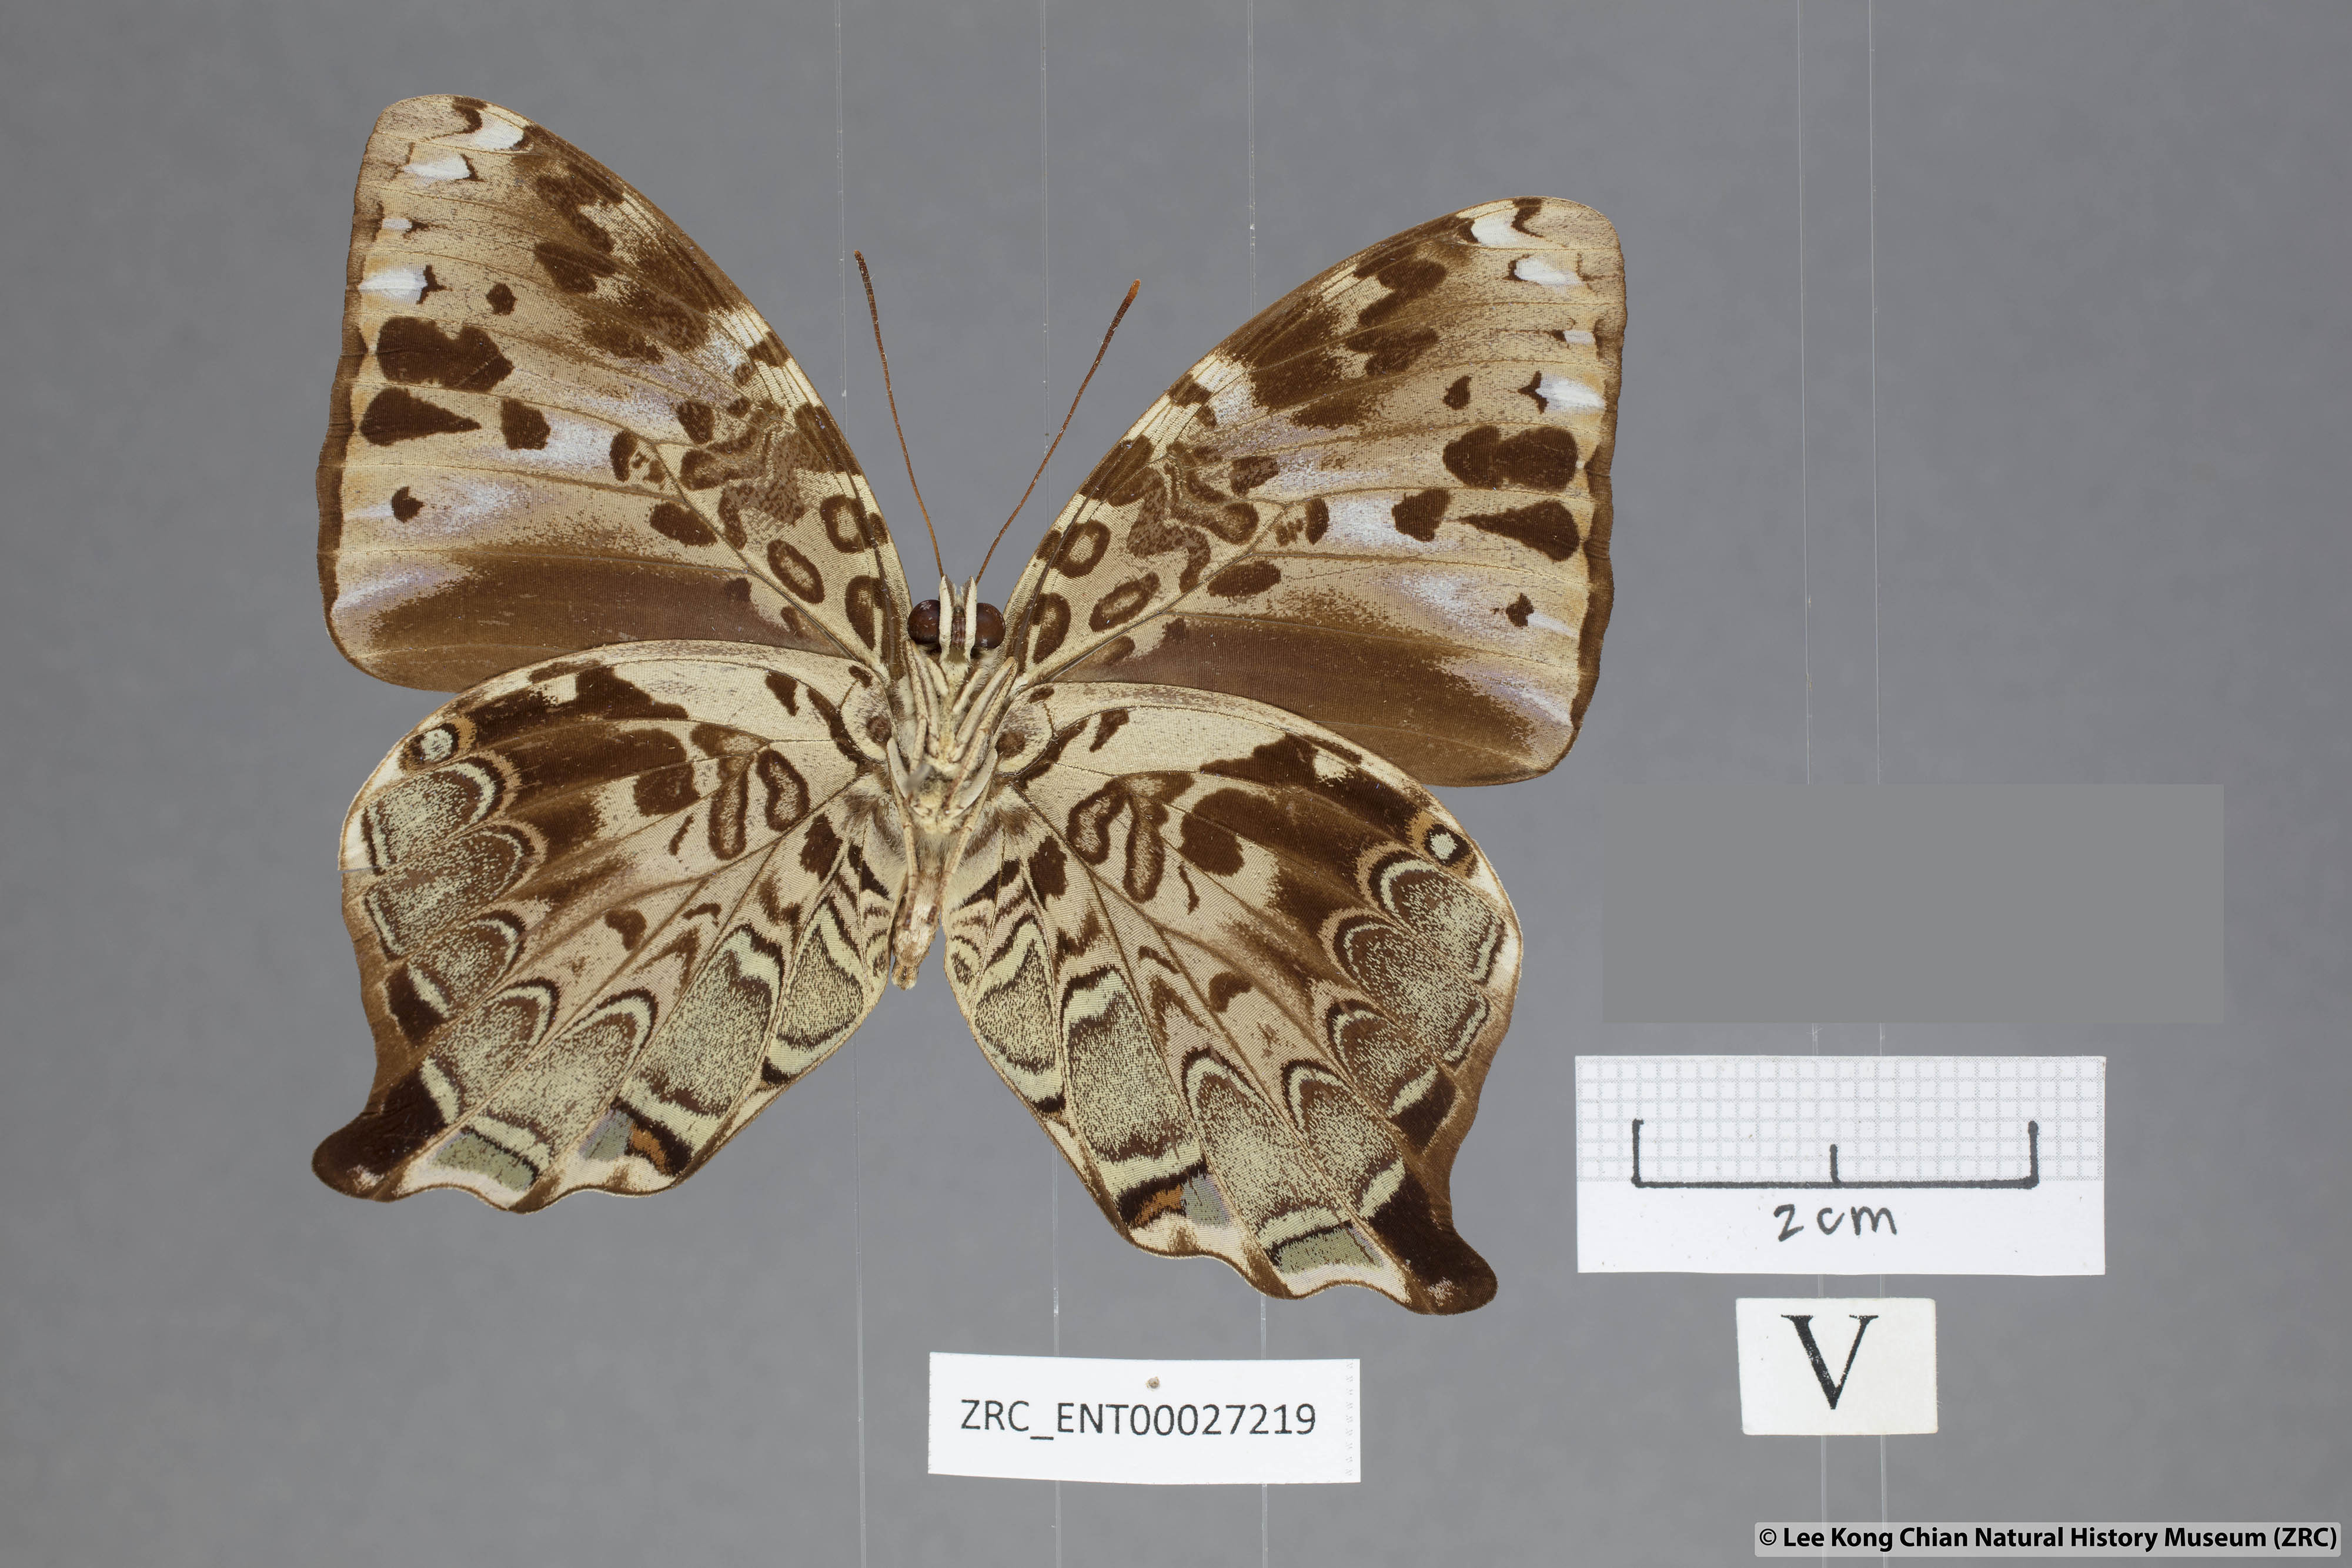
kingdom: Animalia
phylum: Arthropoda
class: Insecta
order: Lepidoptera
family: Nymphalidae
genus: Prothoe
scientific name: Prothoe
